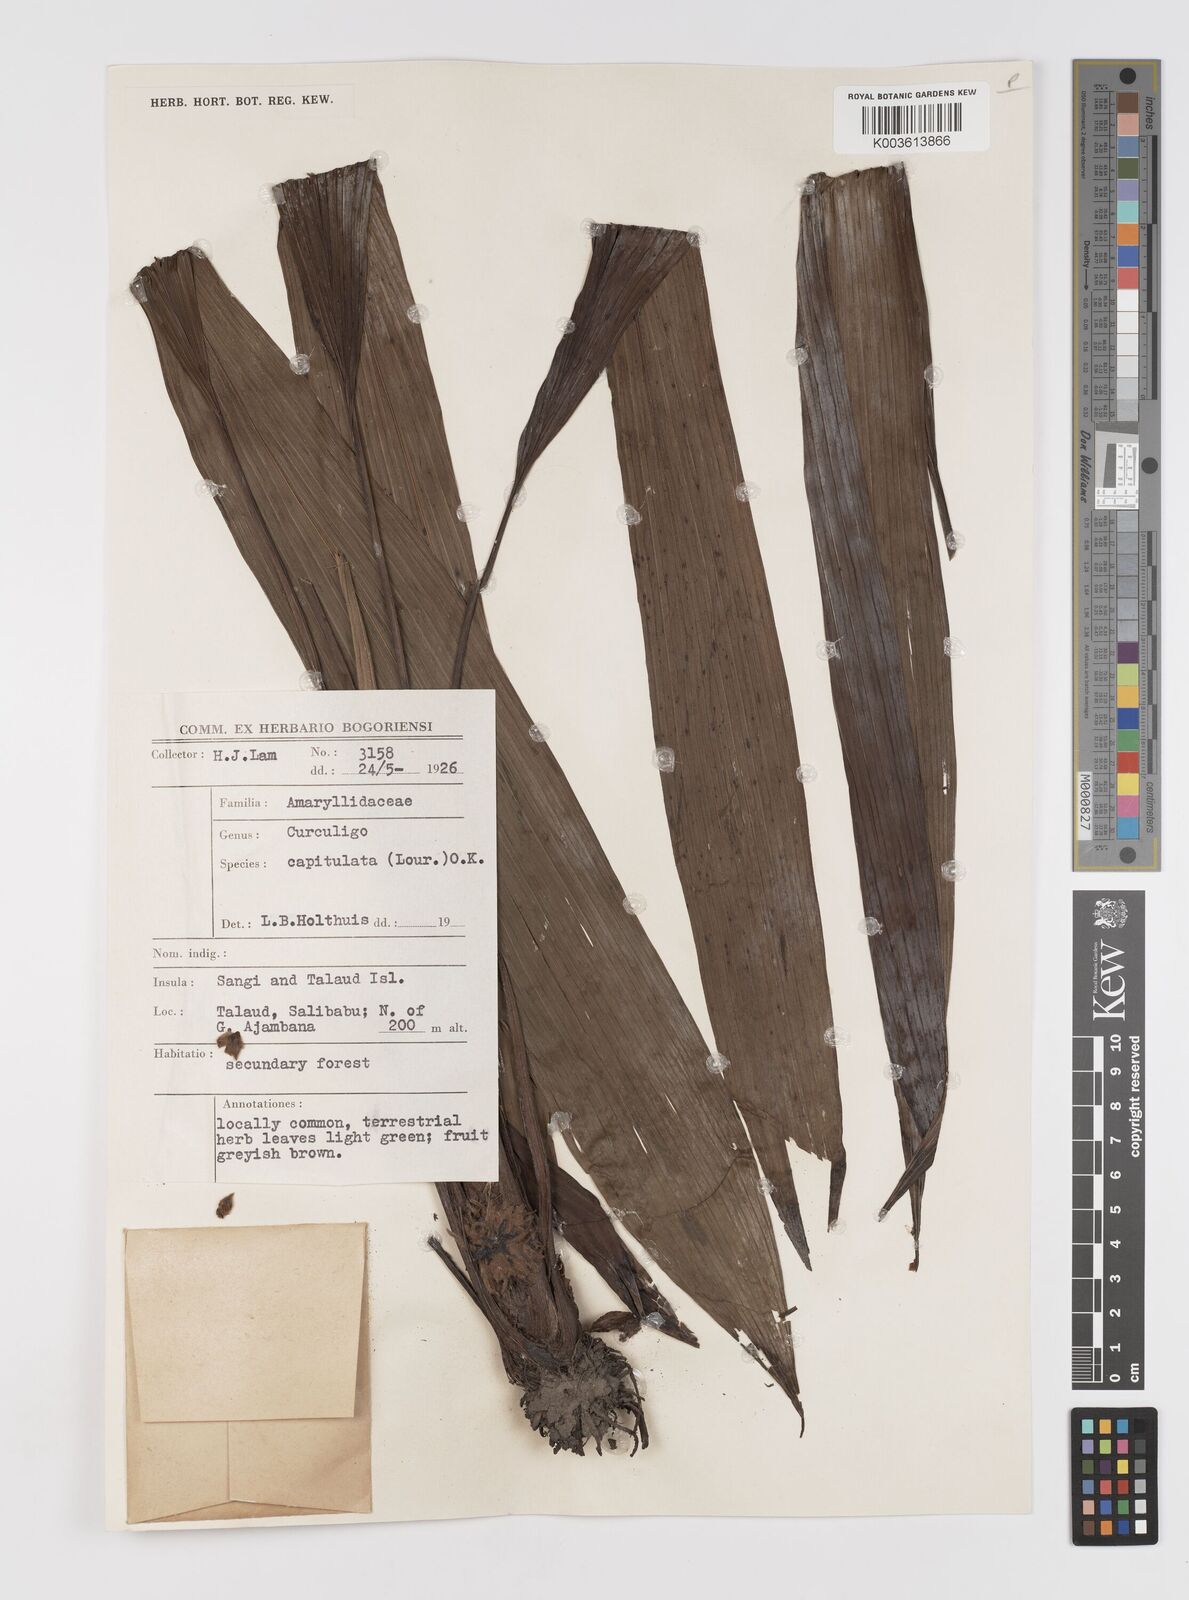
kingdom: Plantae
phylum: Tracheophyta
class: Liliopsida
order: Asparagales
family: Hypoxidaceae
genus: Curculigo
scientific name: Curculigo capitulata
